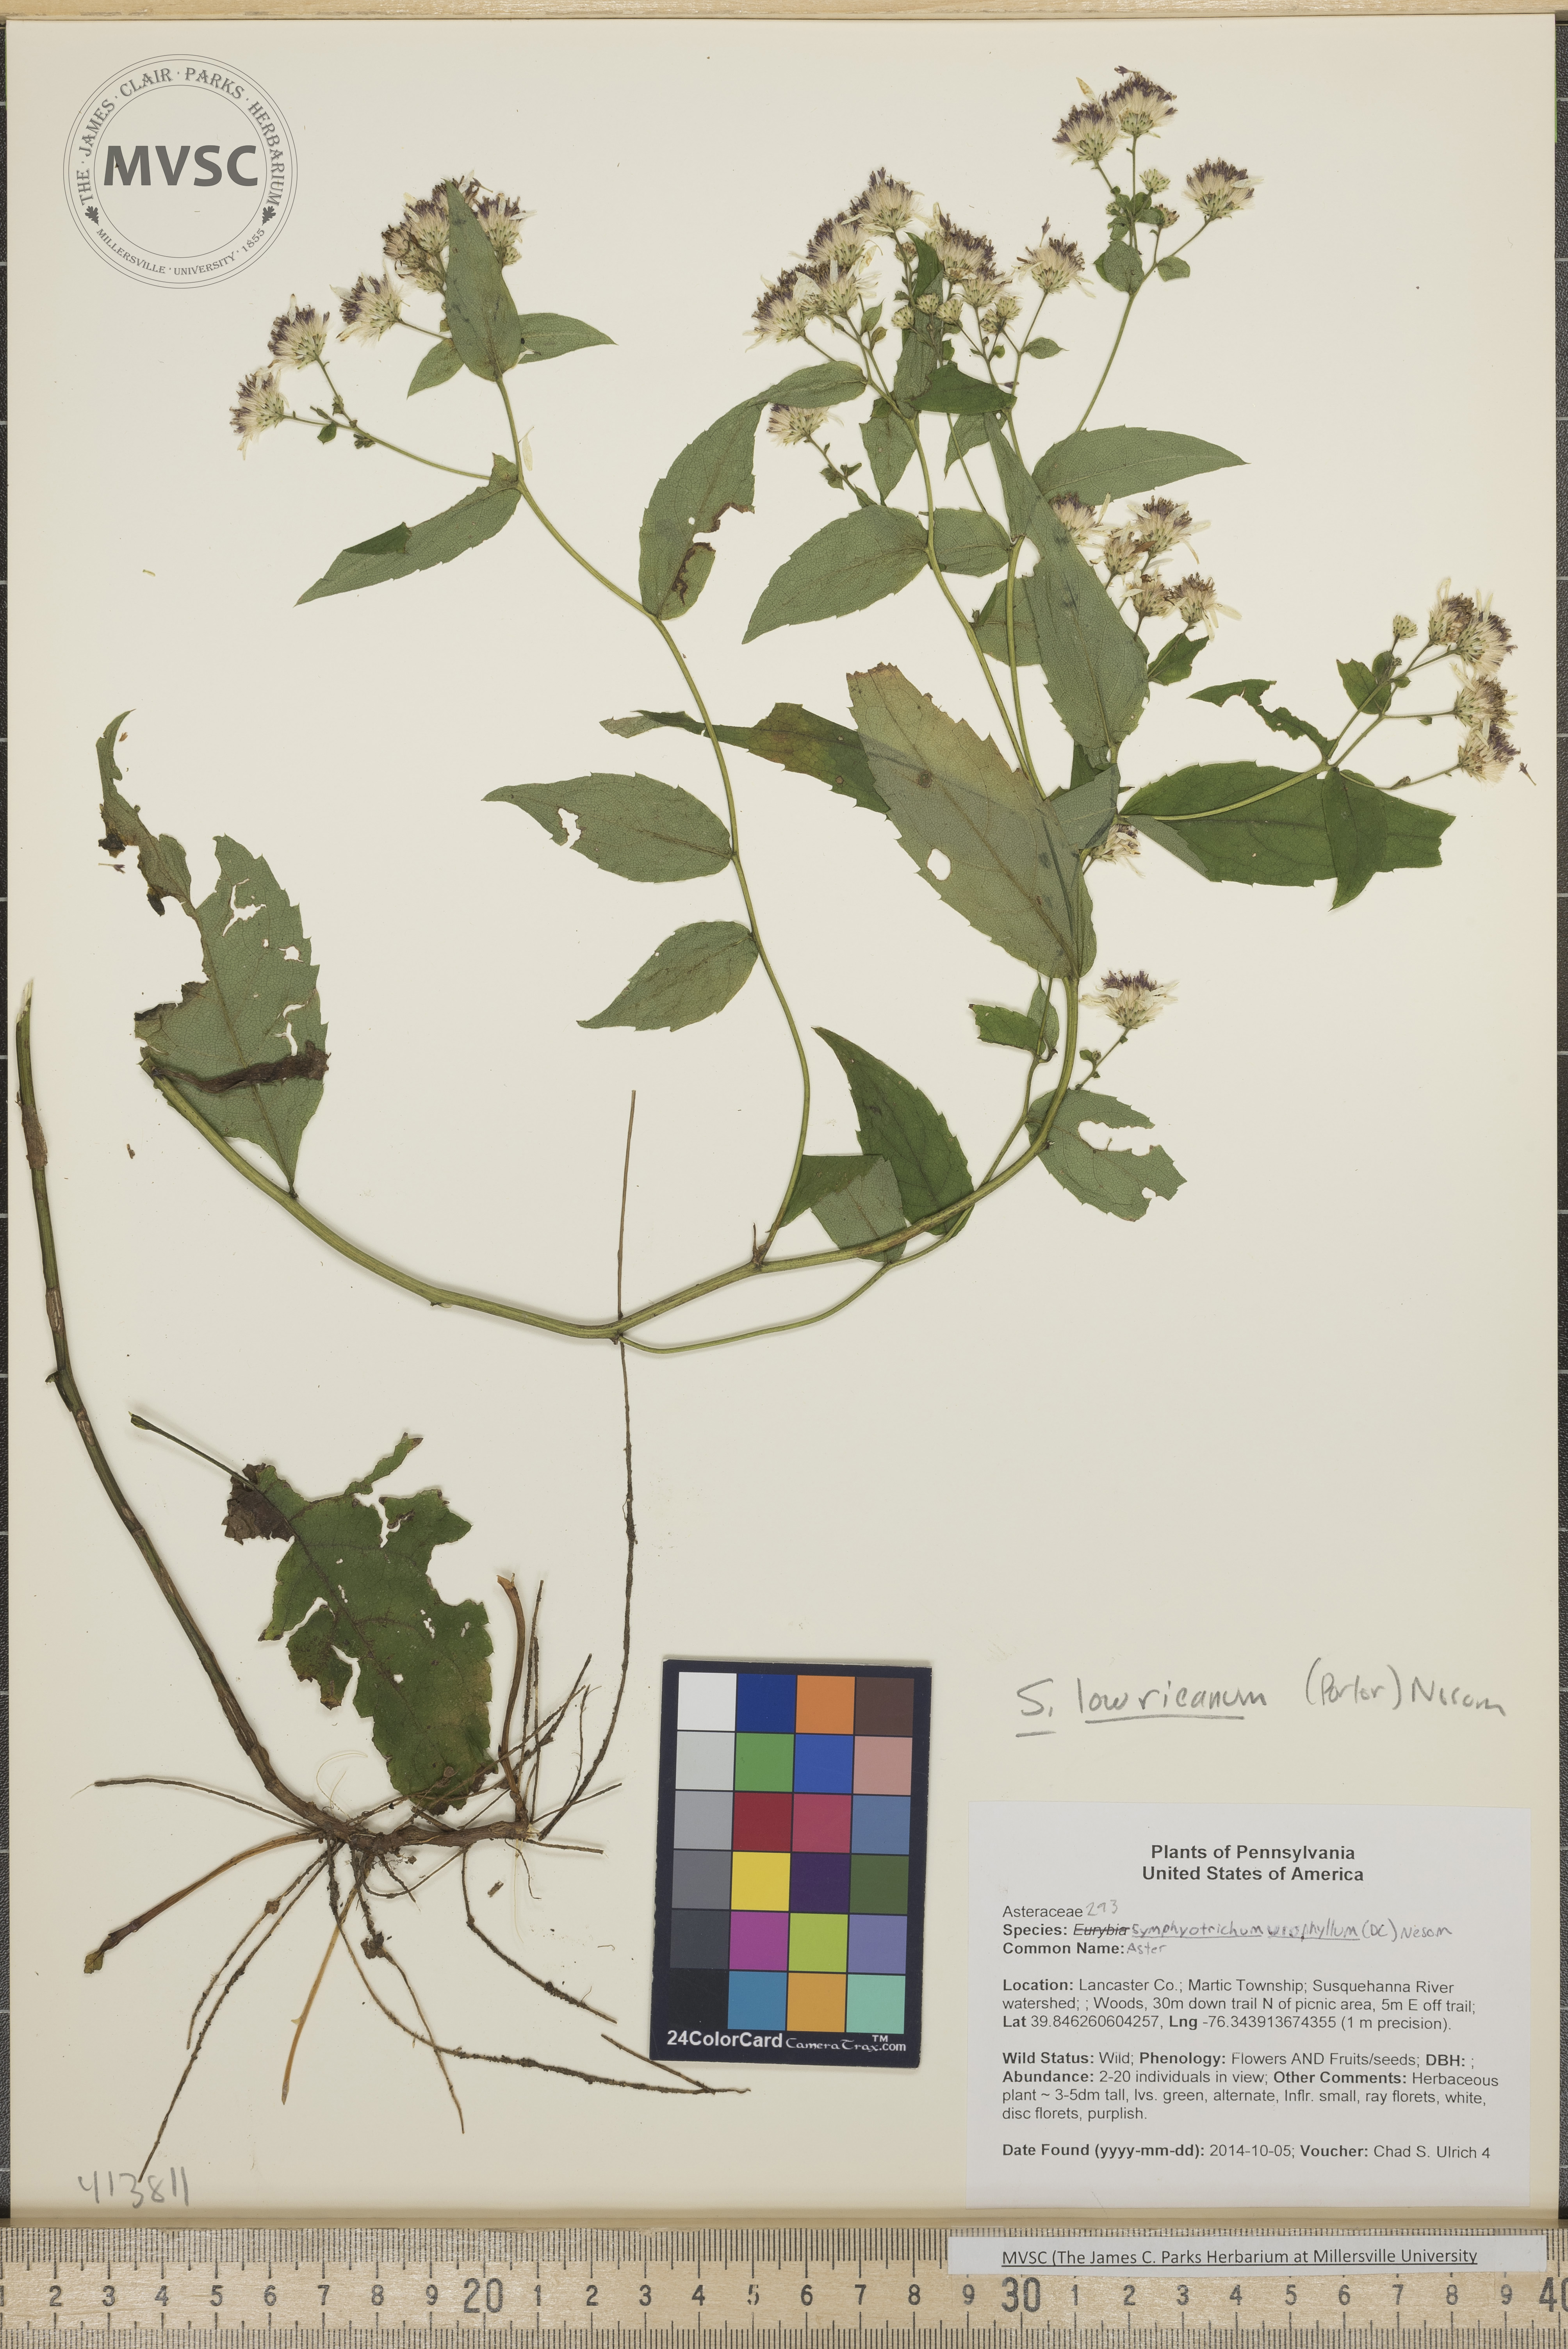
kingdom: Plantae
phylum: Tracheophyta
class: Magnoliopsida
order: Asterales
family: Asteraceae
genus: Symphyotrichum
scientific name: Symphyotrichum cordifolium
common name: Aster
